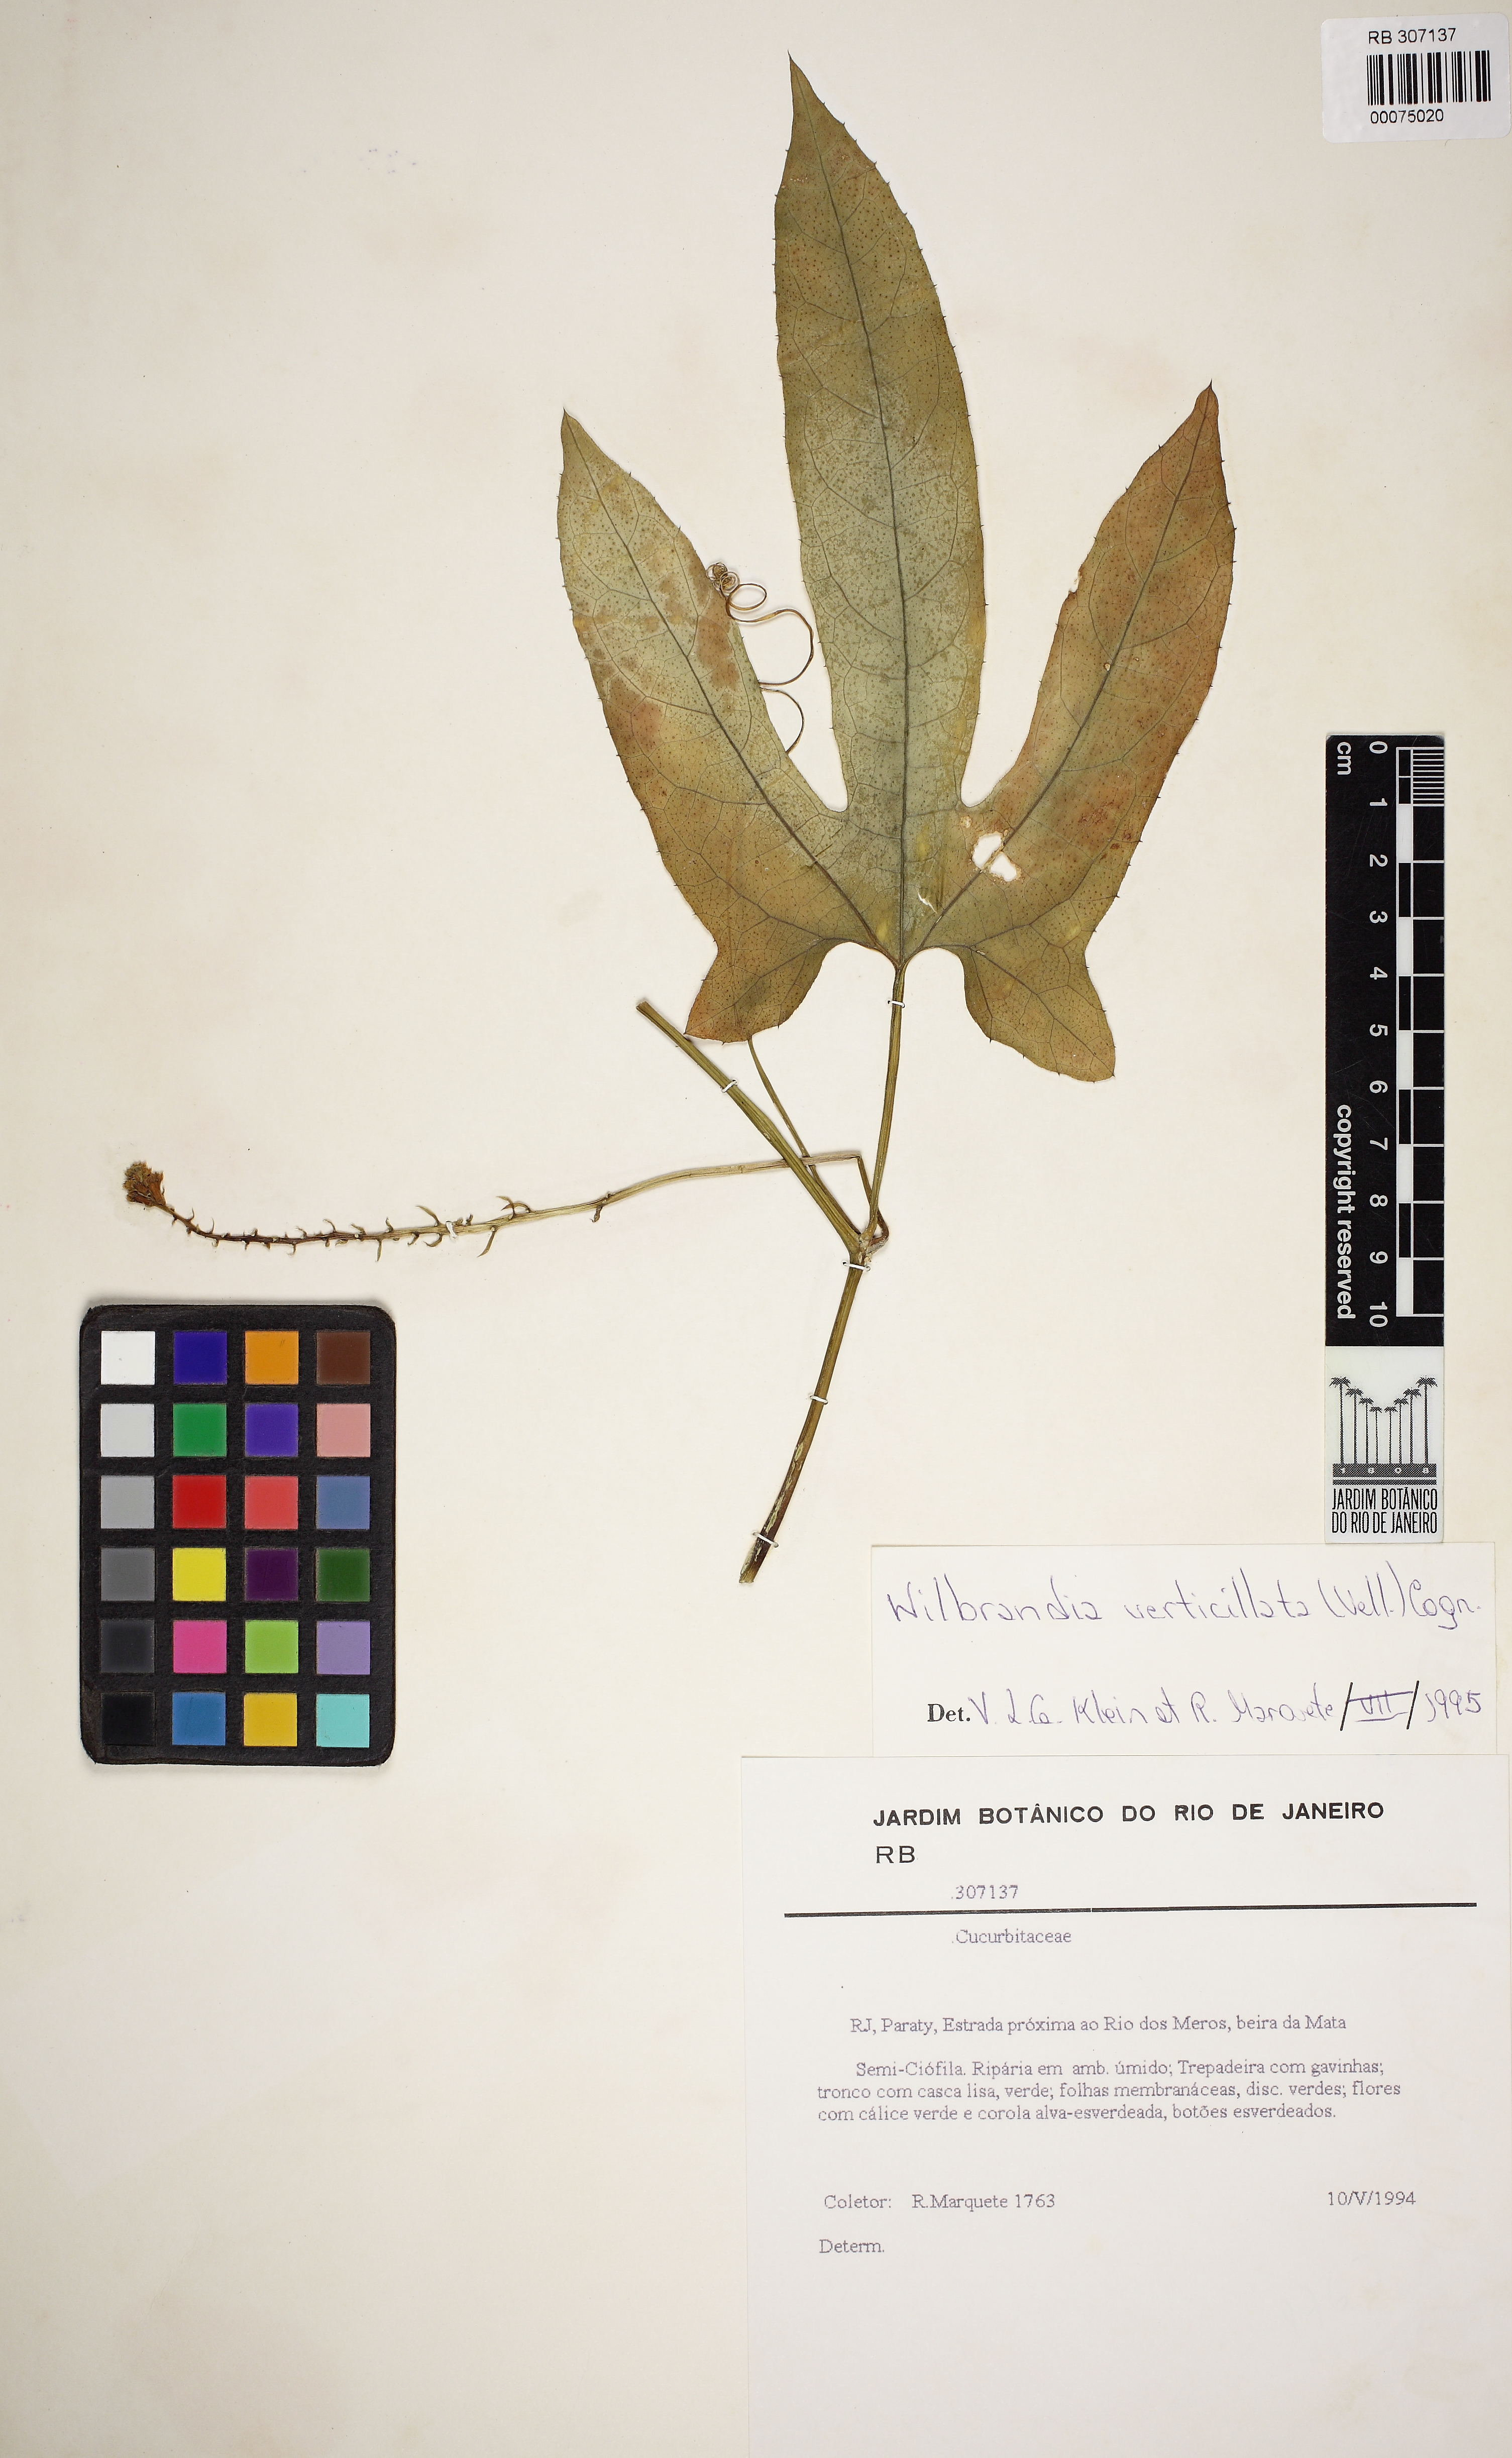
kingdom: Plantae
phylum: Tracheophyta
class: Magnoliopsida
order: Cucurbitales
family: Cucurbitaceae
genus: Wilbrandia
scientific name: Wilbrandia verticillata
